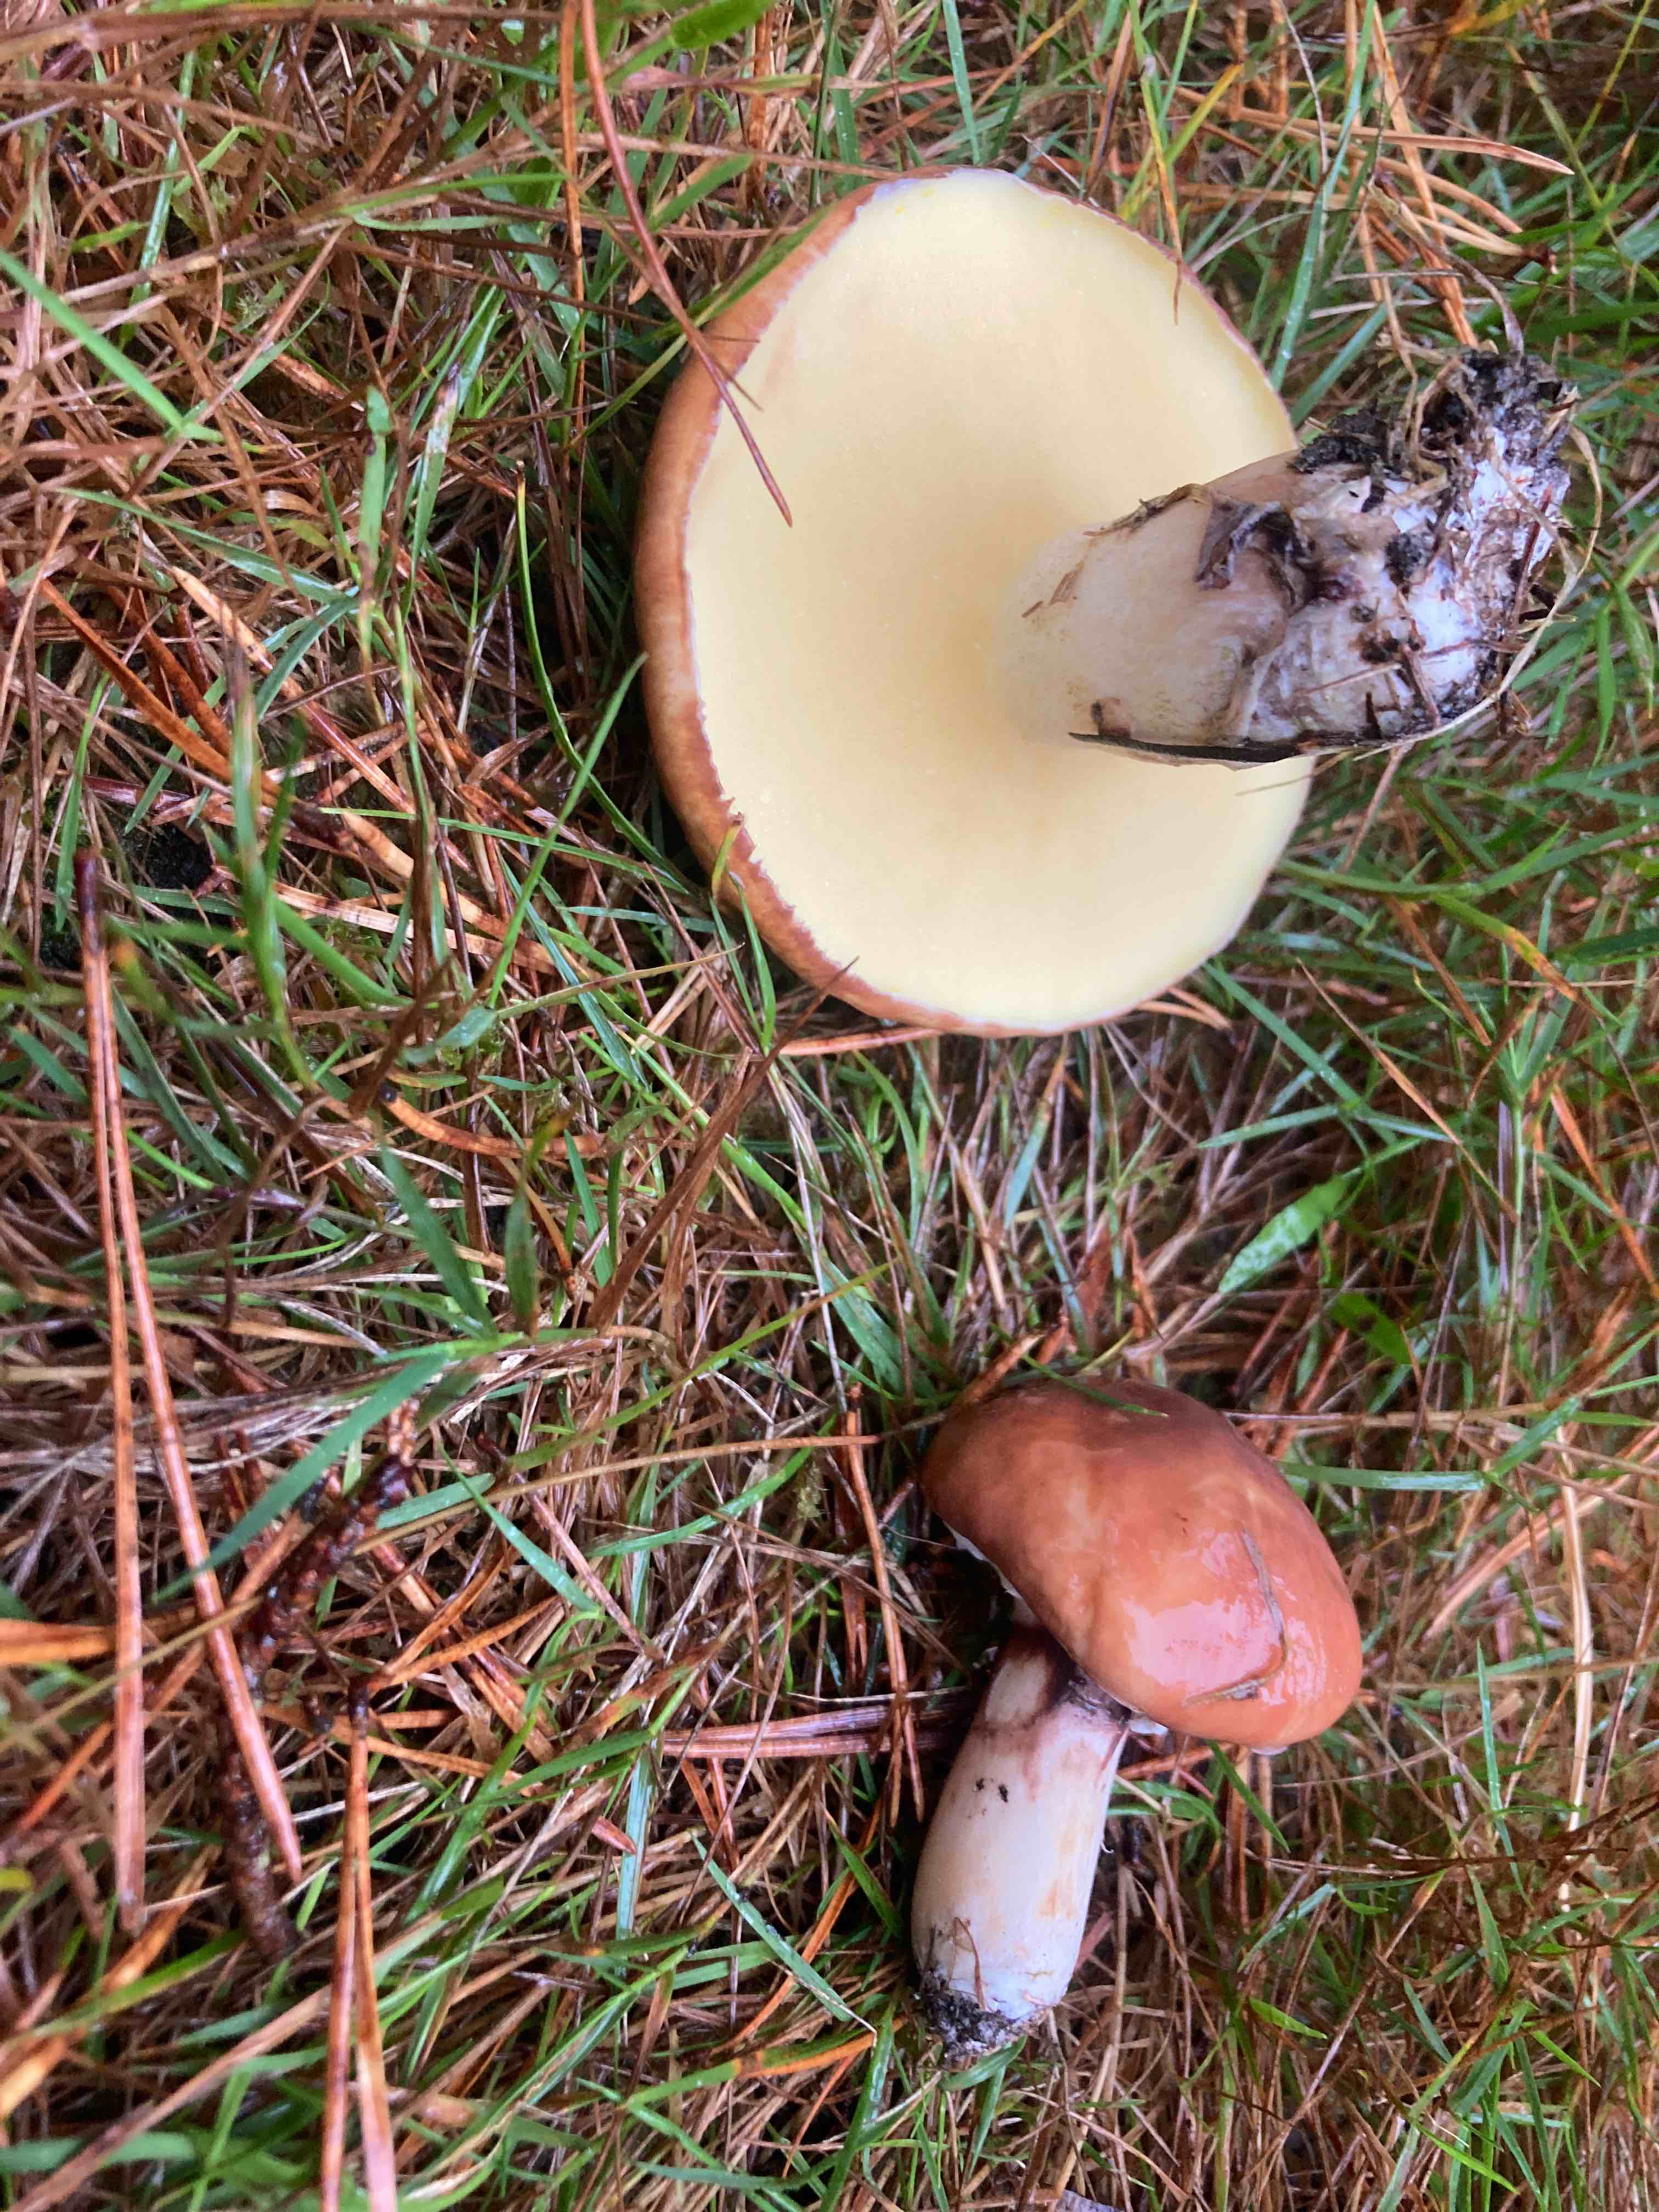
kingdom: Fungi
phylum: Basidiomycota
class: Agaricomycetes
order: Boletales
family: Suillaceae
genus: Suillus
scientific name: Suillus luteus
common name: brungul slimrørhat
